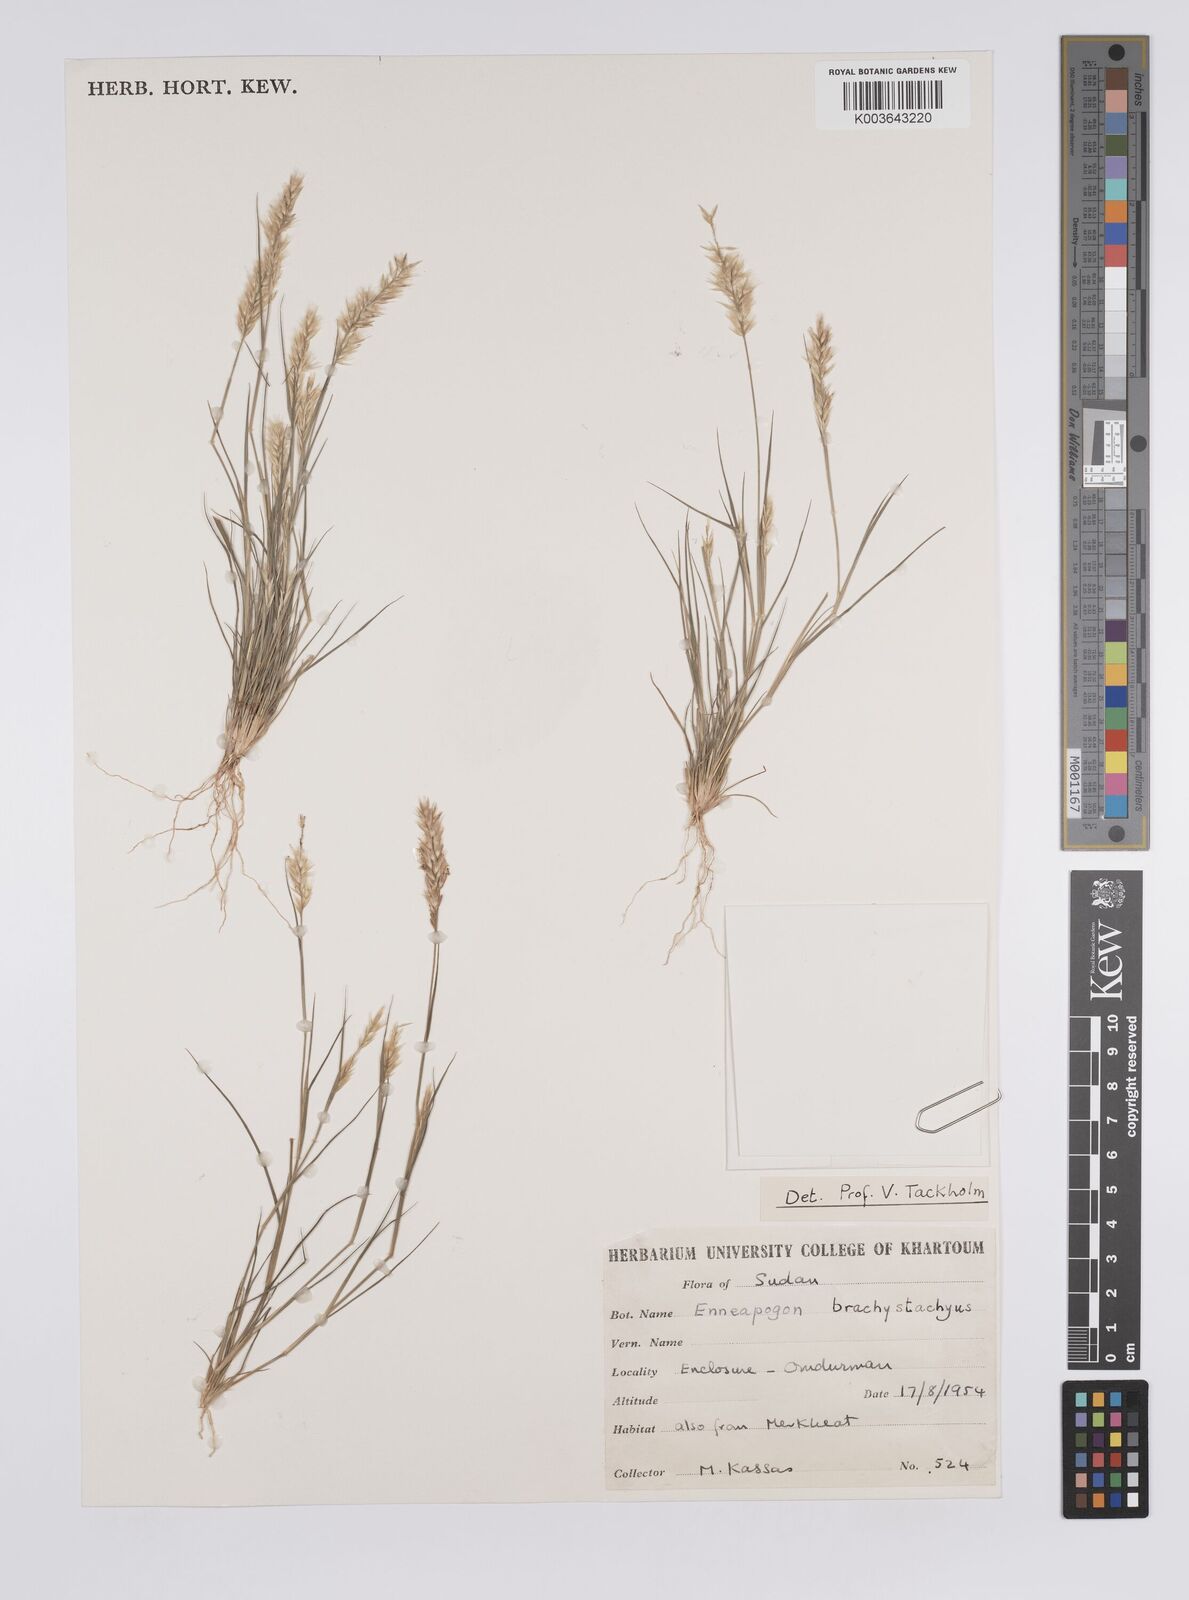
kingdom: Plantae
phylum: Tracheophyta
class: Liliopsida
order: Poales
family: Poaceae
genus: Enneapogon
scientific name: Enneapogon desvauxii
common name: Feather pappus grass
